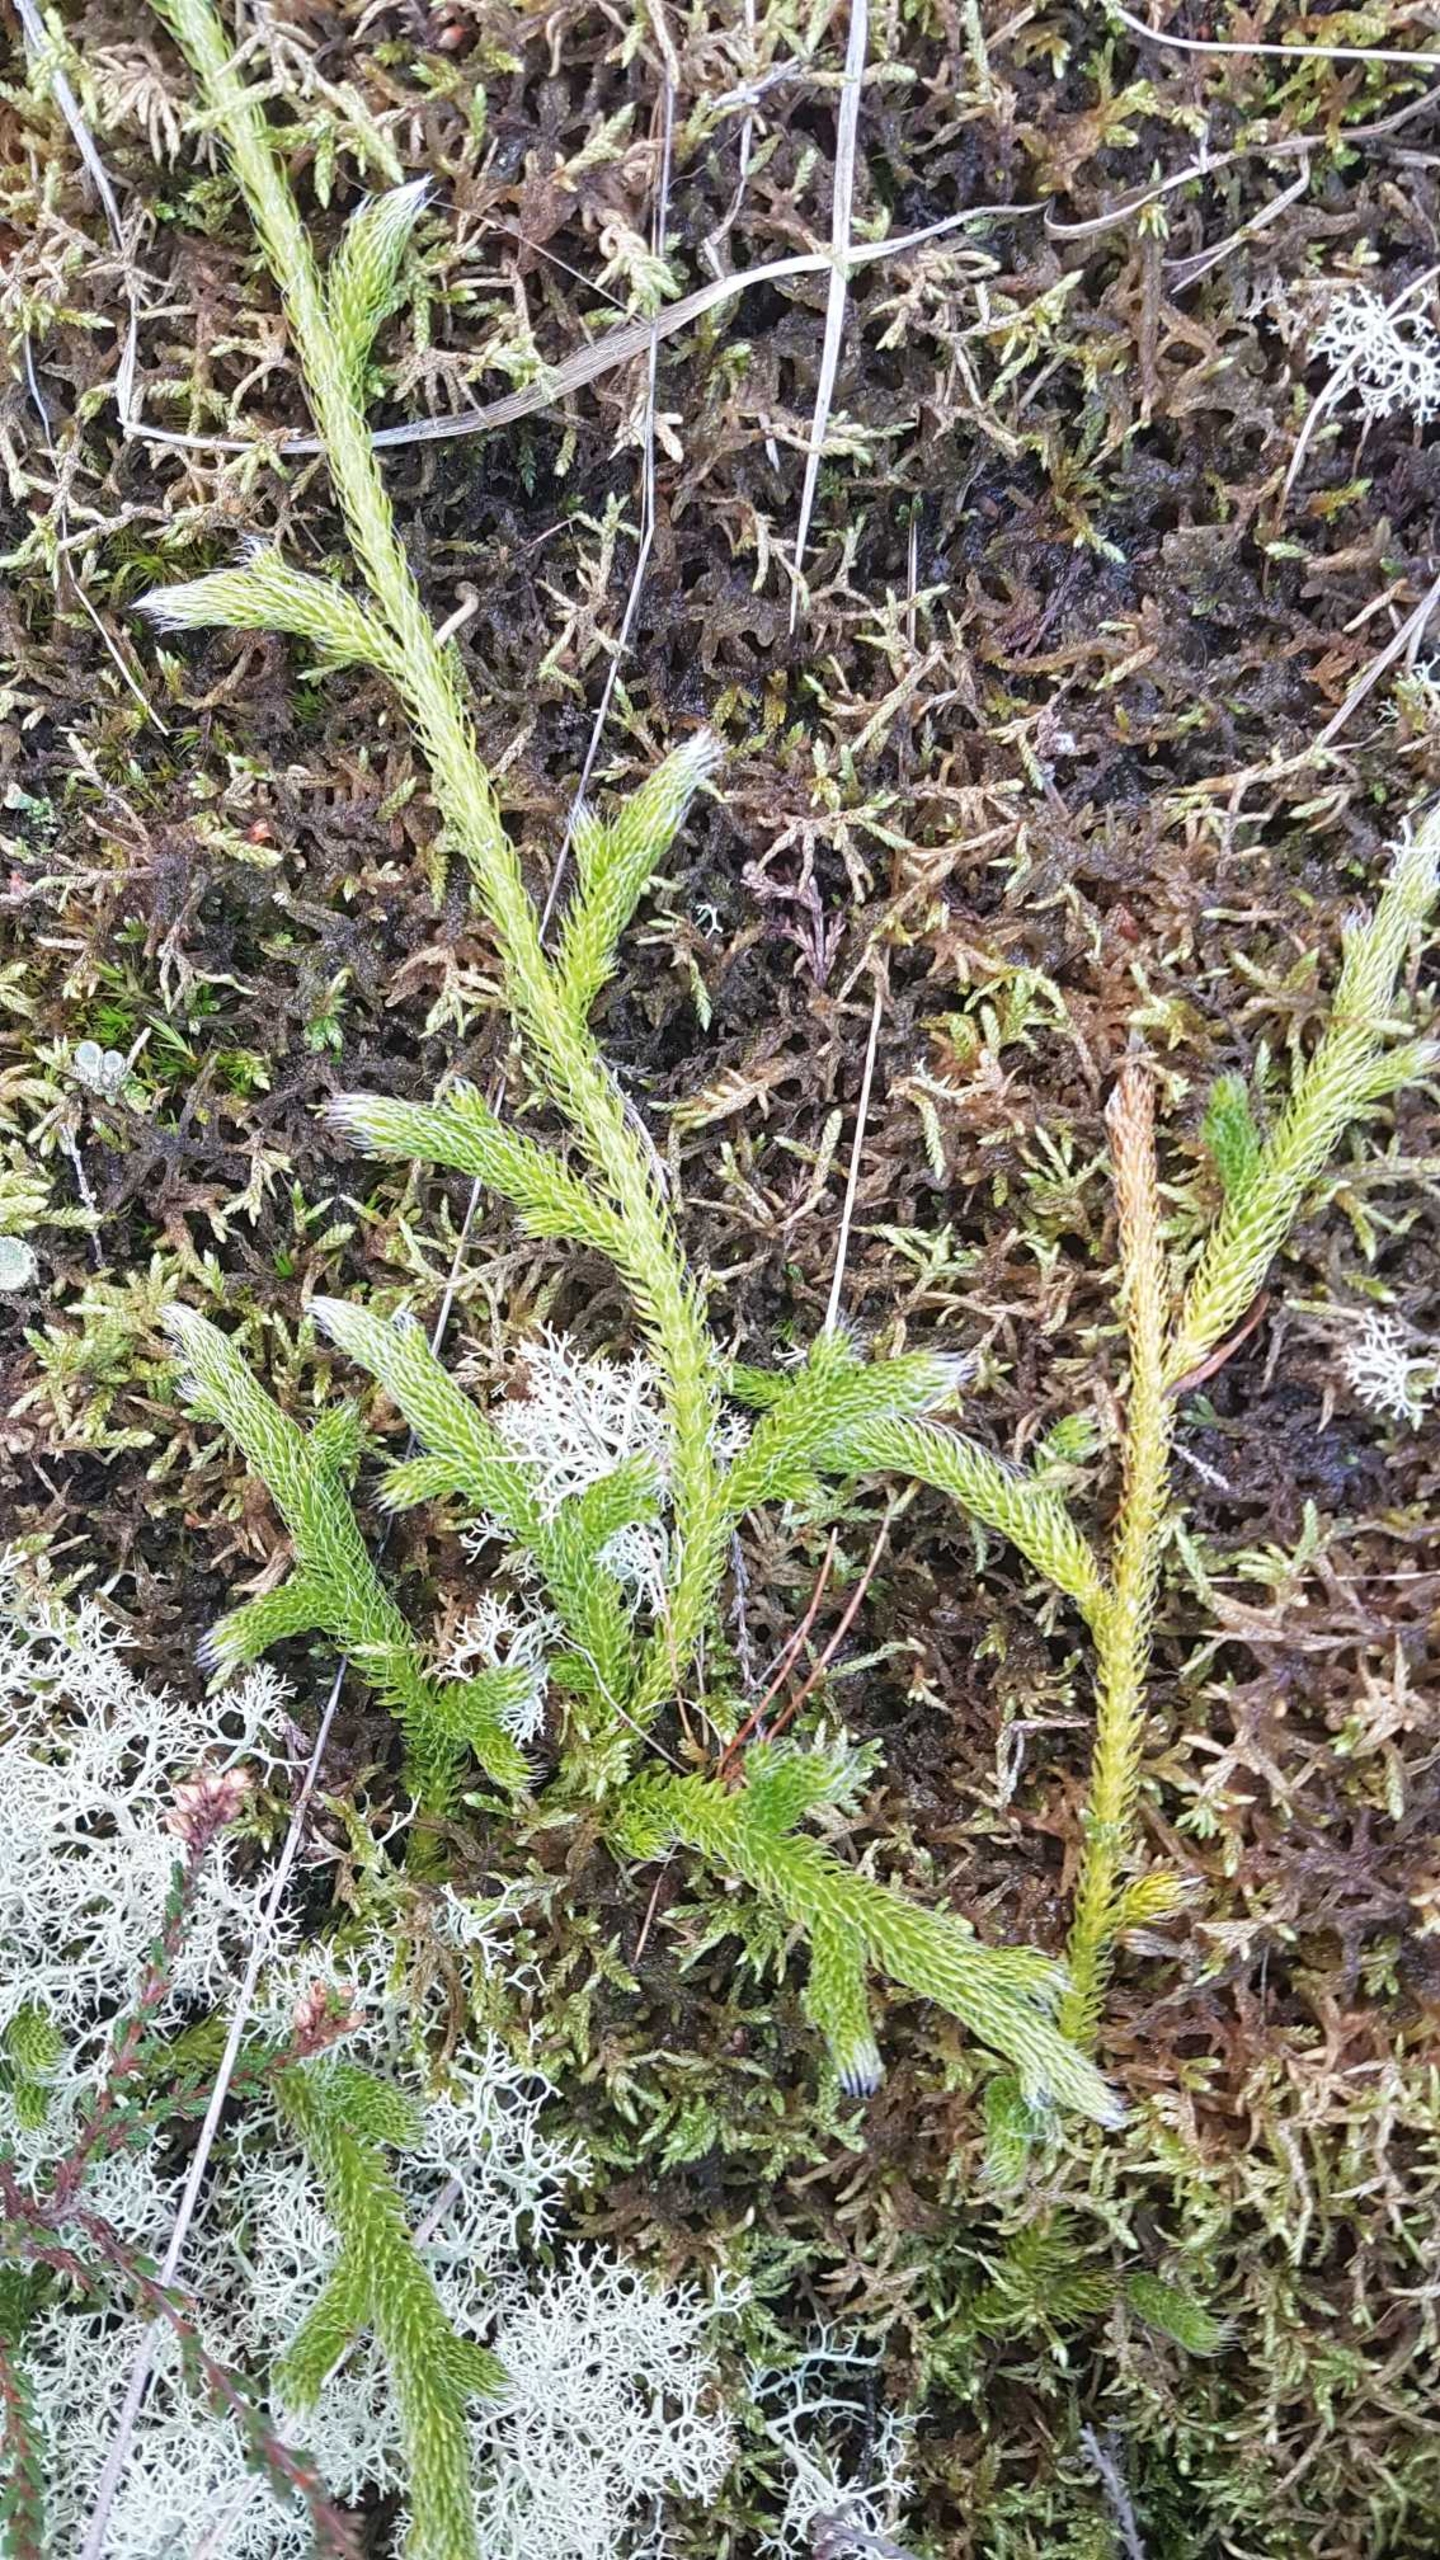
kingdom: Plantae
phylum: Tracheophyta
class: Lycopodiopsida
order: Lycopodiales
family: Lycopodiaceae
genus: Lycopodium
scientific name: Lycopodium clavatum
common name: Almindelig ulvefod
